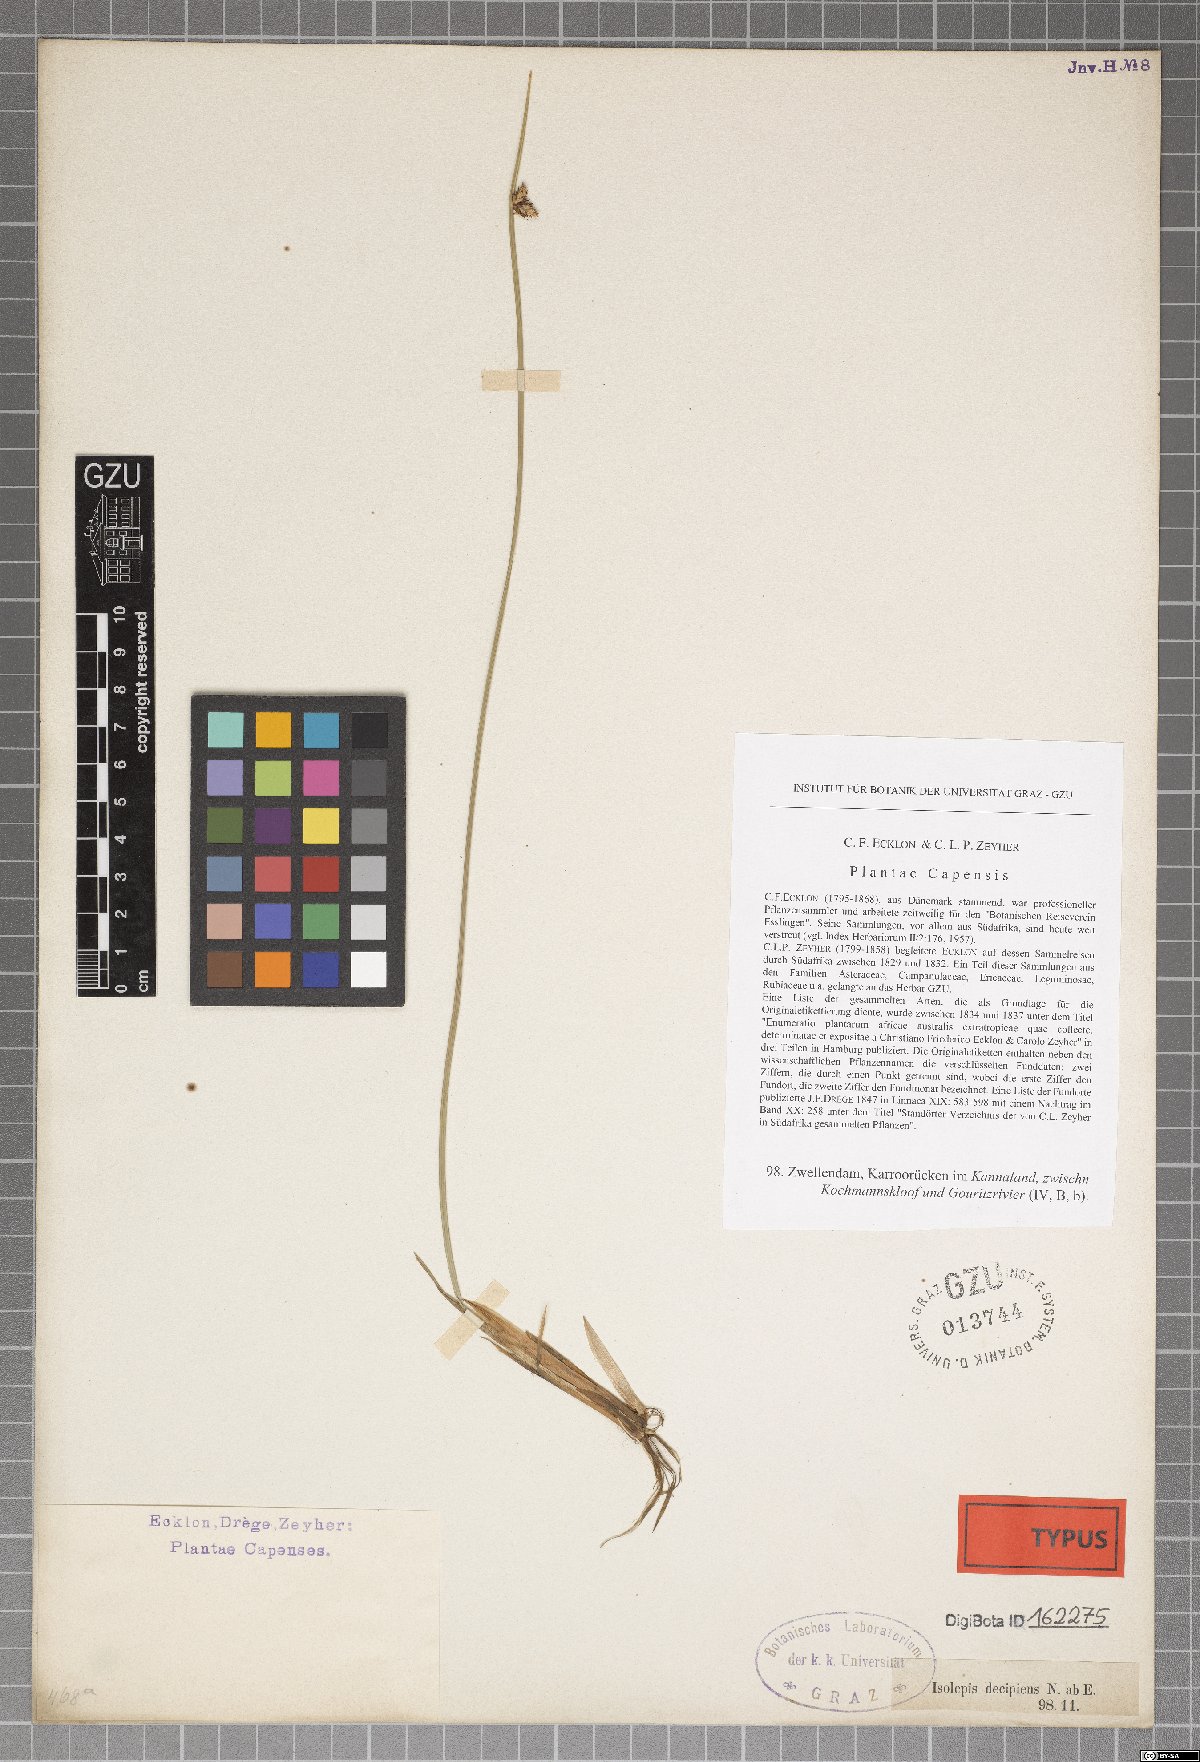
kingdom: Plantae
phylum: Tracheophyta
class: Liliopsida
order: Poales
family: Cyperaceae
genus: Schoenoplectiella
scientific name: Schoenoplectiella decipiens
